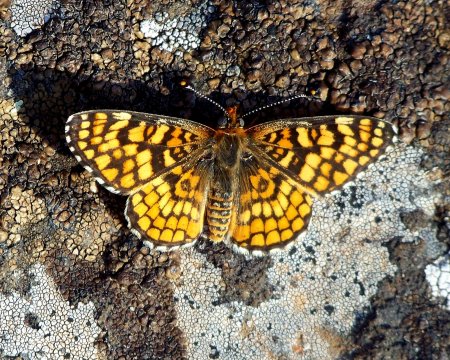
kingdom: Animalia
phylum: Arthropoda
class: Insecta
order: Lepidoptera
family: Nymphalidae
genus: Poladryas
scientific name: Poladryas minuta
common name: Arachne Checkerspot
